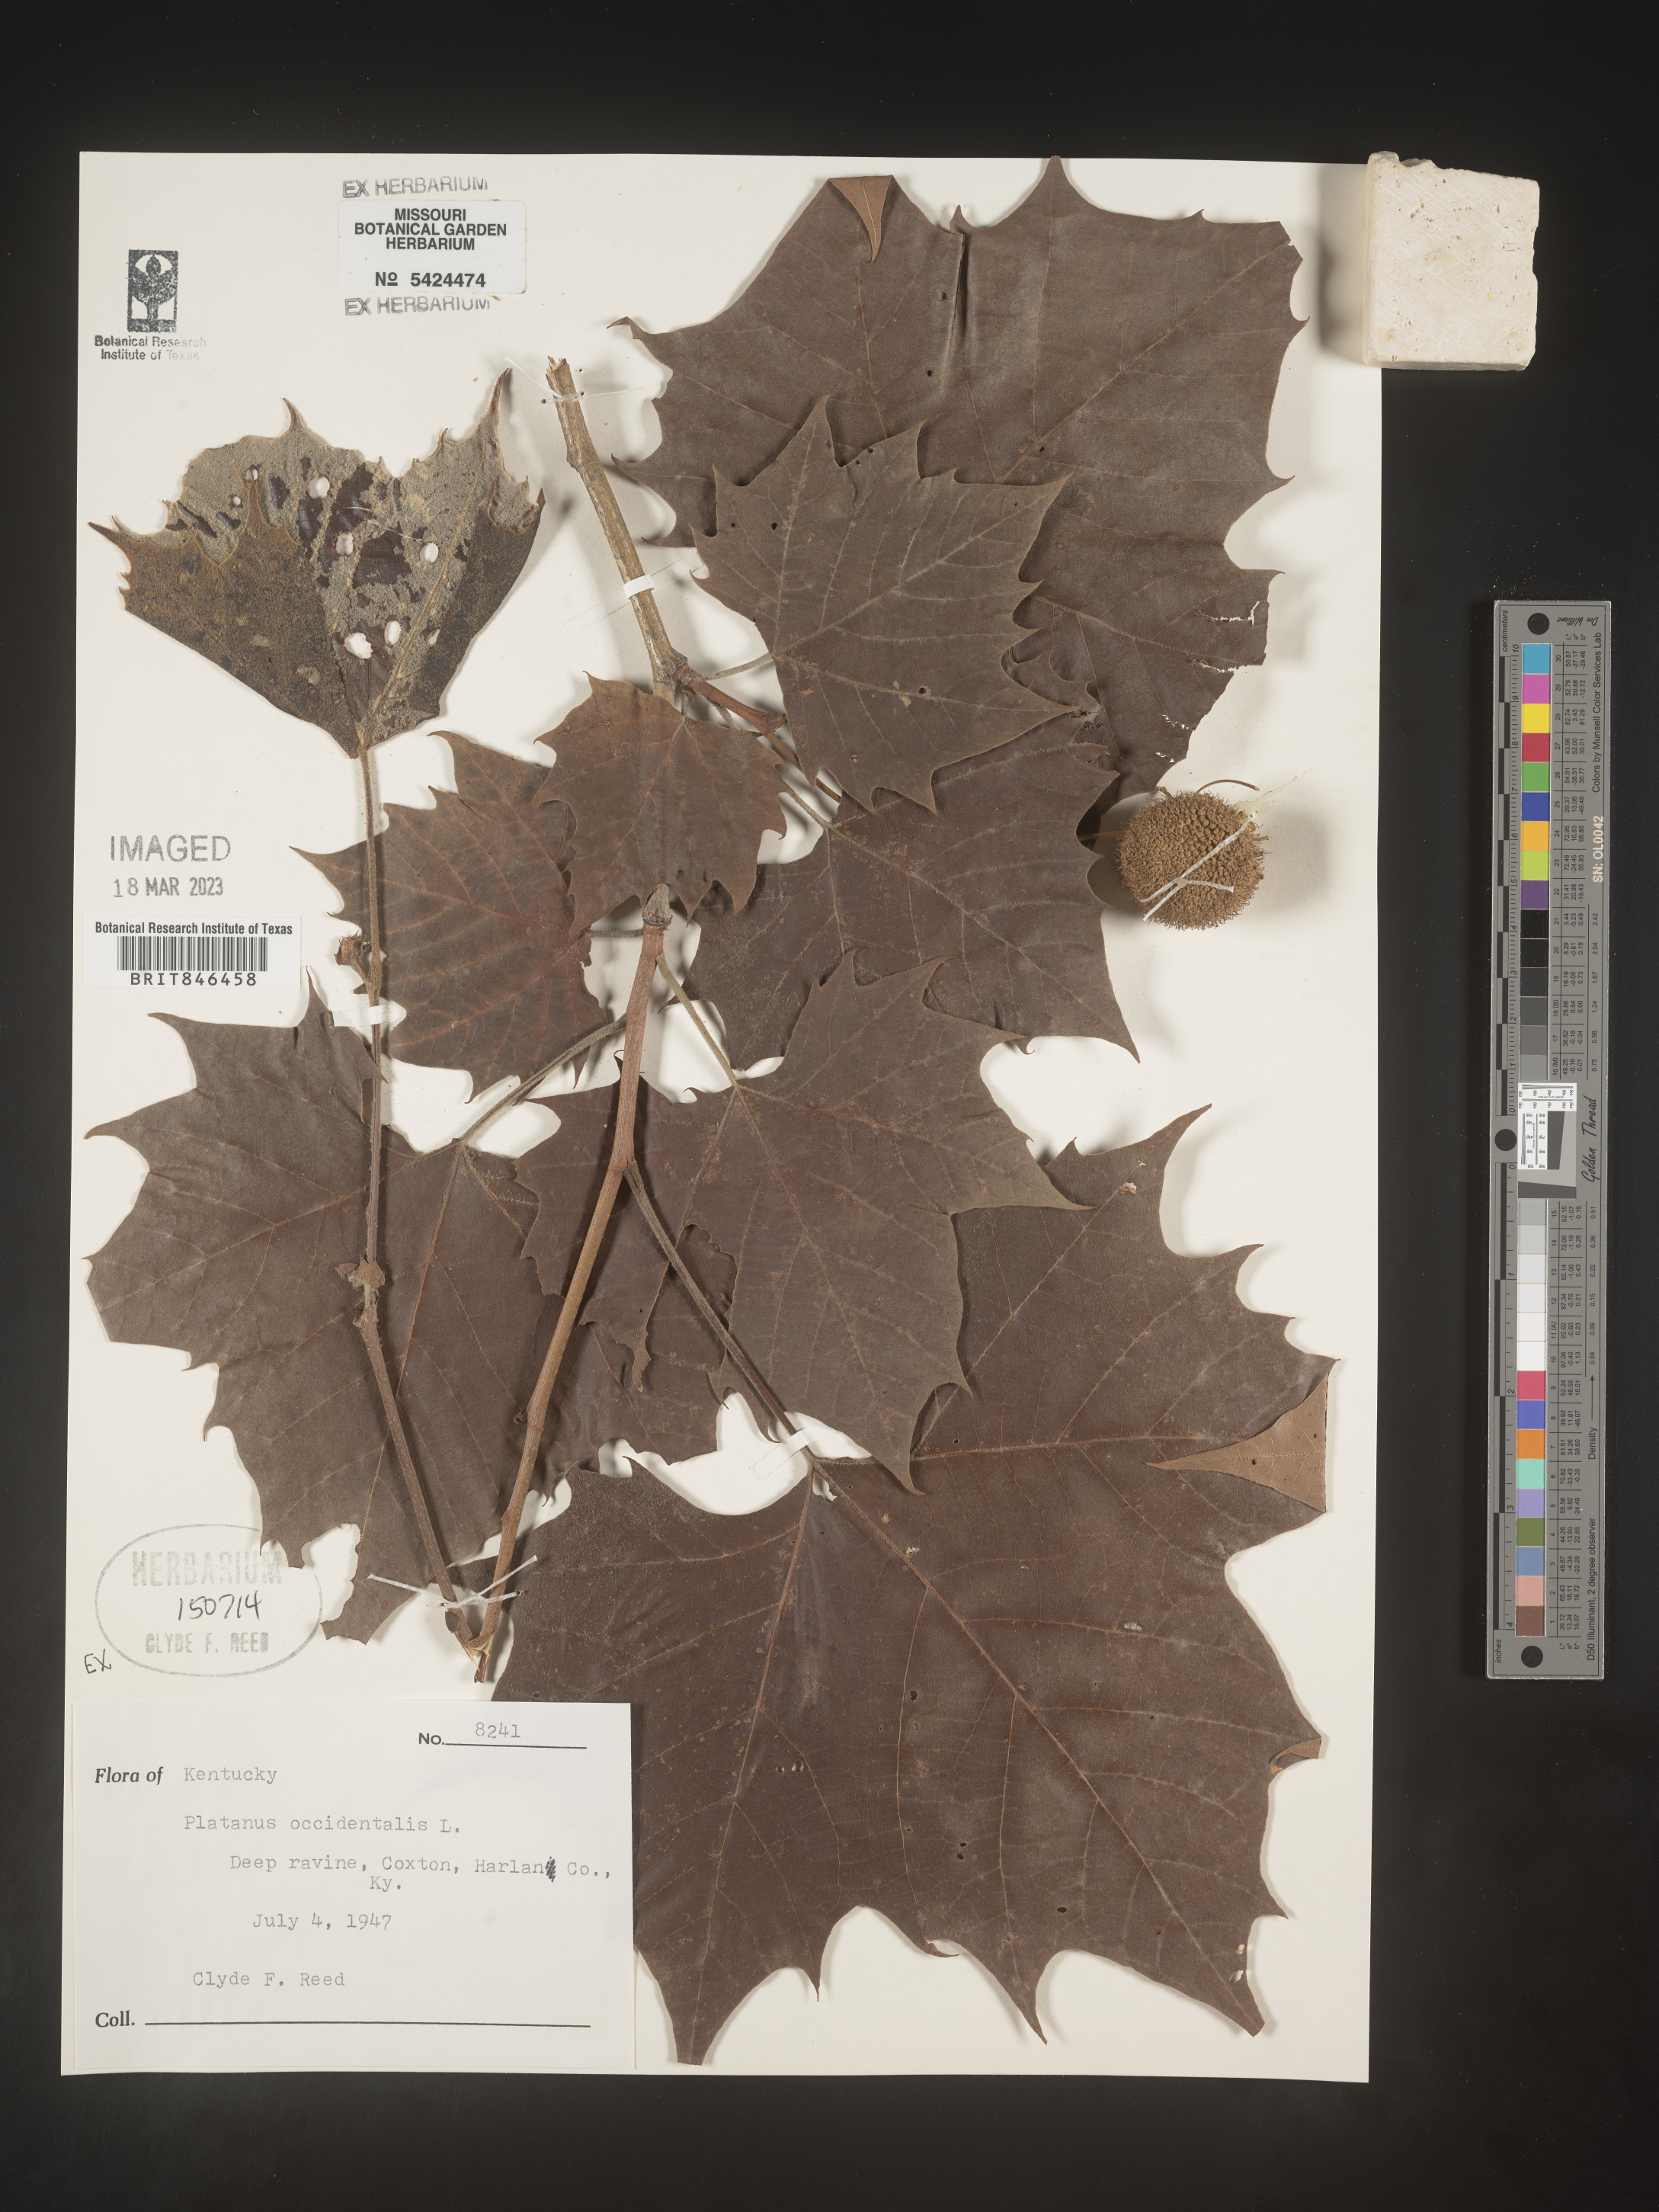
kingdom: Plantae
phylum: Tracheophyta
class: Magnoliopsida
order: Proteales
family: Platanaceae
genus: Platanus
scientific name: Platanus occidentalis
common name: American sycamore
